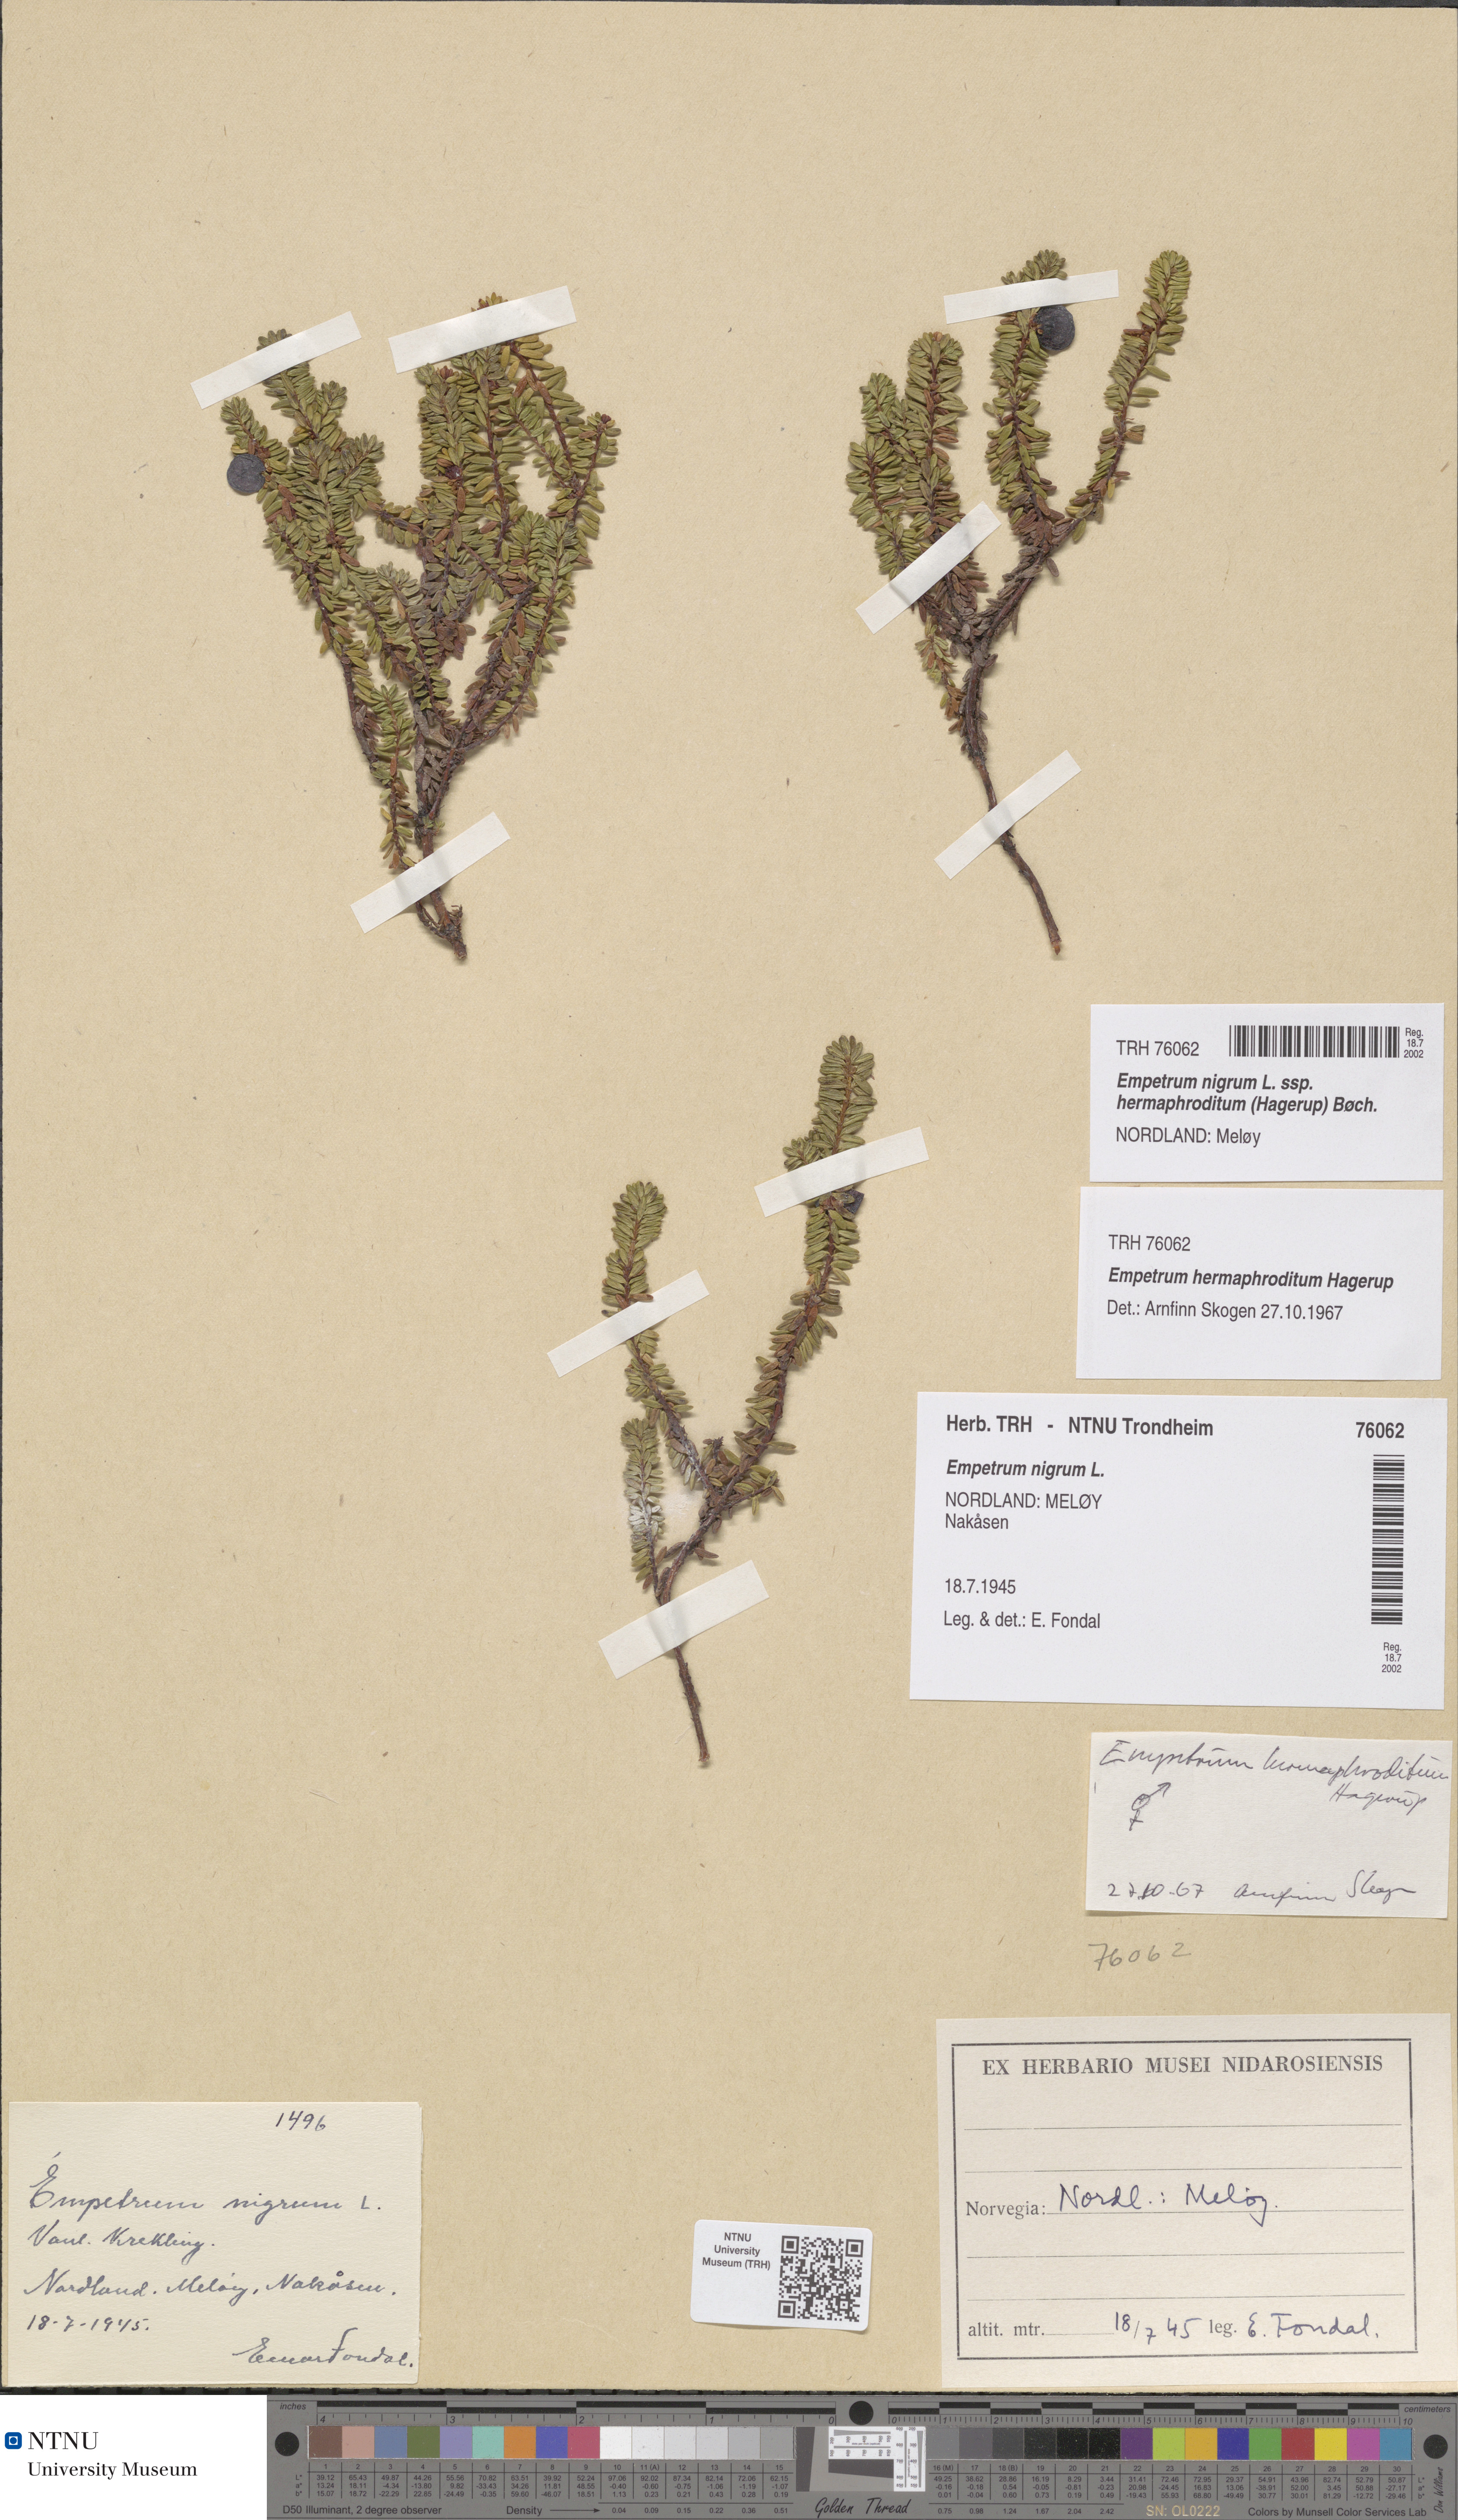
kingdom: Plantae
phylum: Tracheophyta
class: Magnoliopsida
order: Ericales
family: Ericaceae
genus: Empetrum
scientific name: Empetrum hermaphroditum
